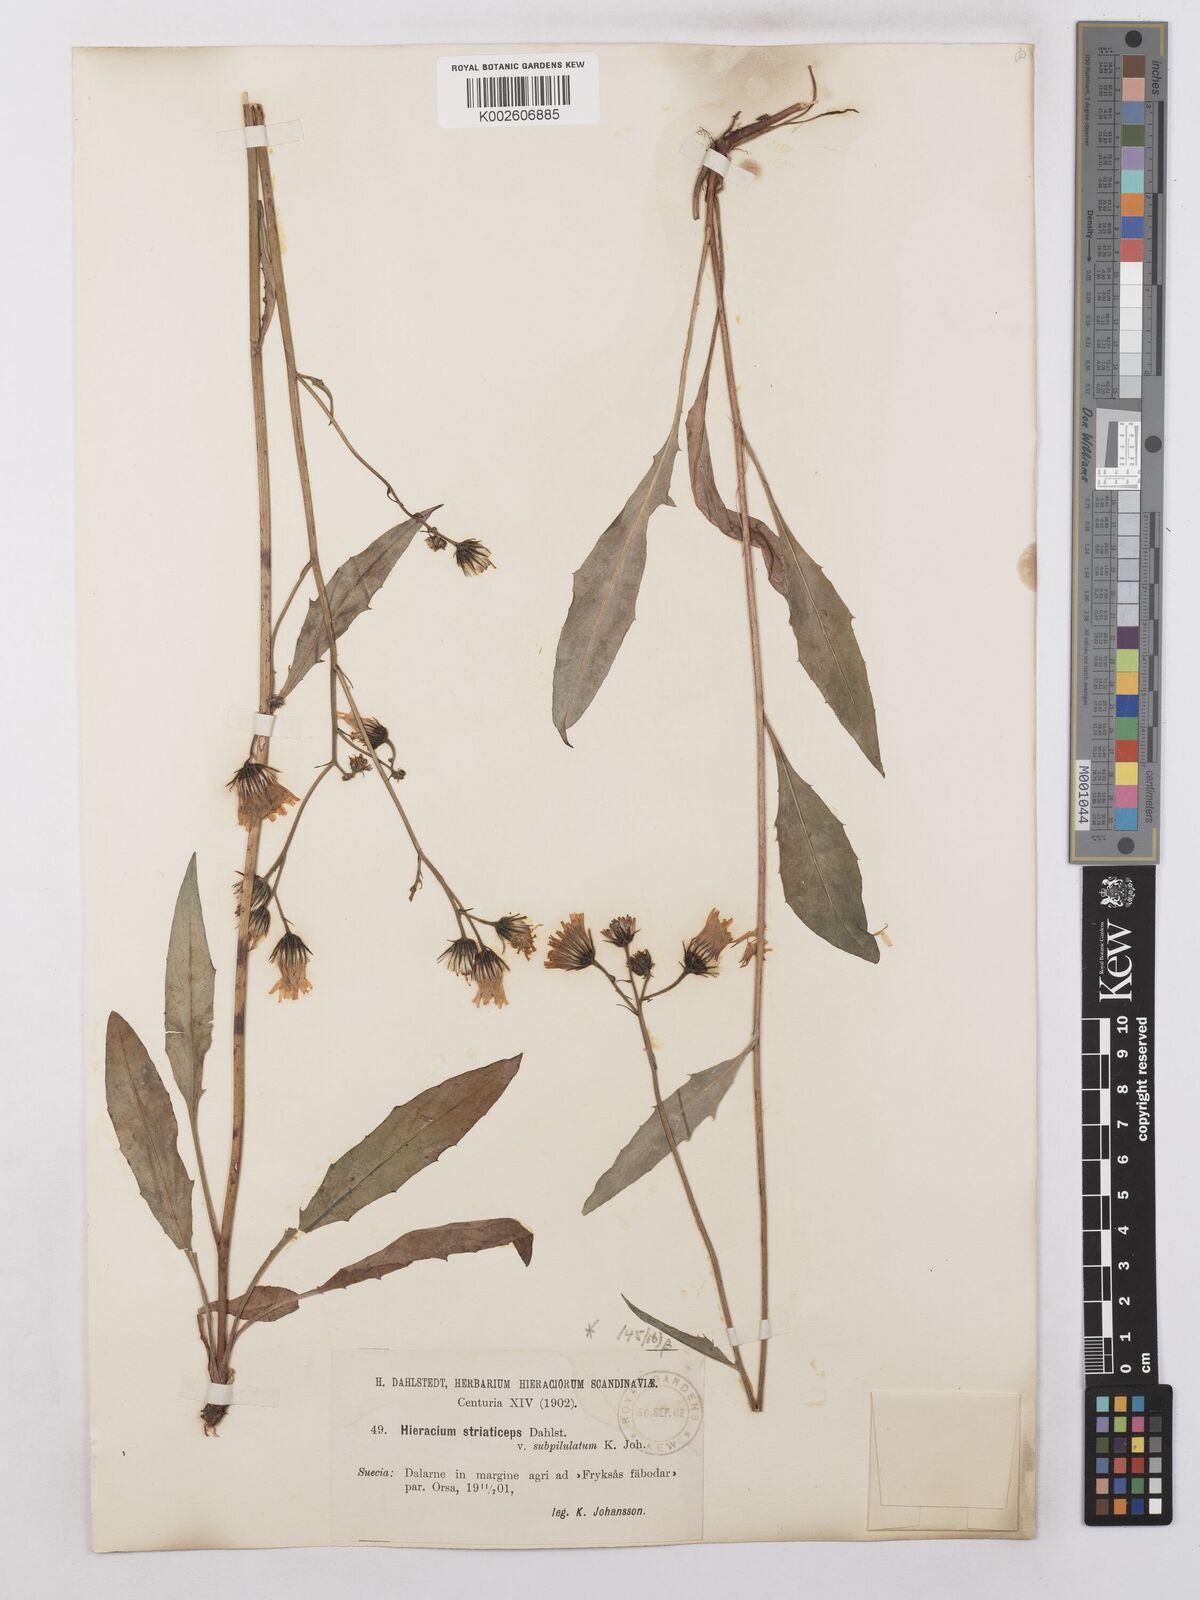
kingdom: Plantae
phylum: Tracheophyta
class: Magnoliopsida
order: Asterales
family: Asteraceae
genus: Hieracium
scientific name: Hieracium levicaule
